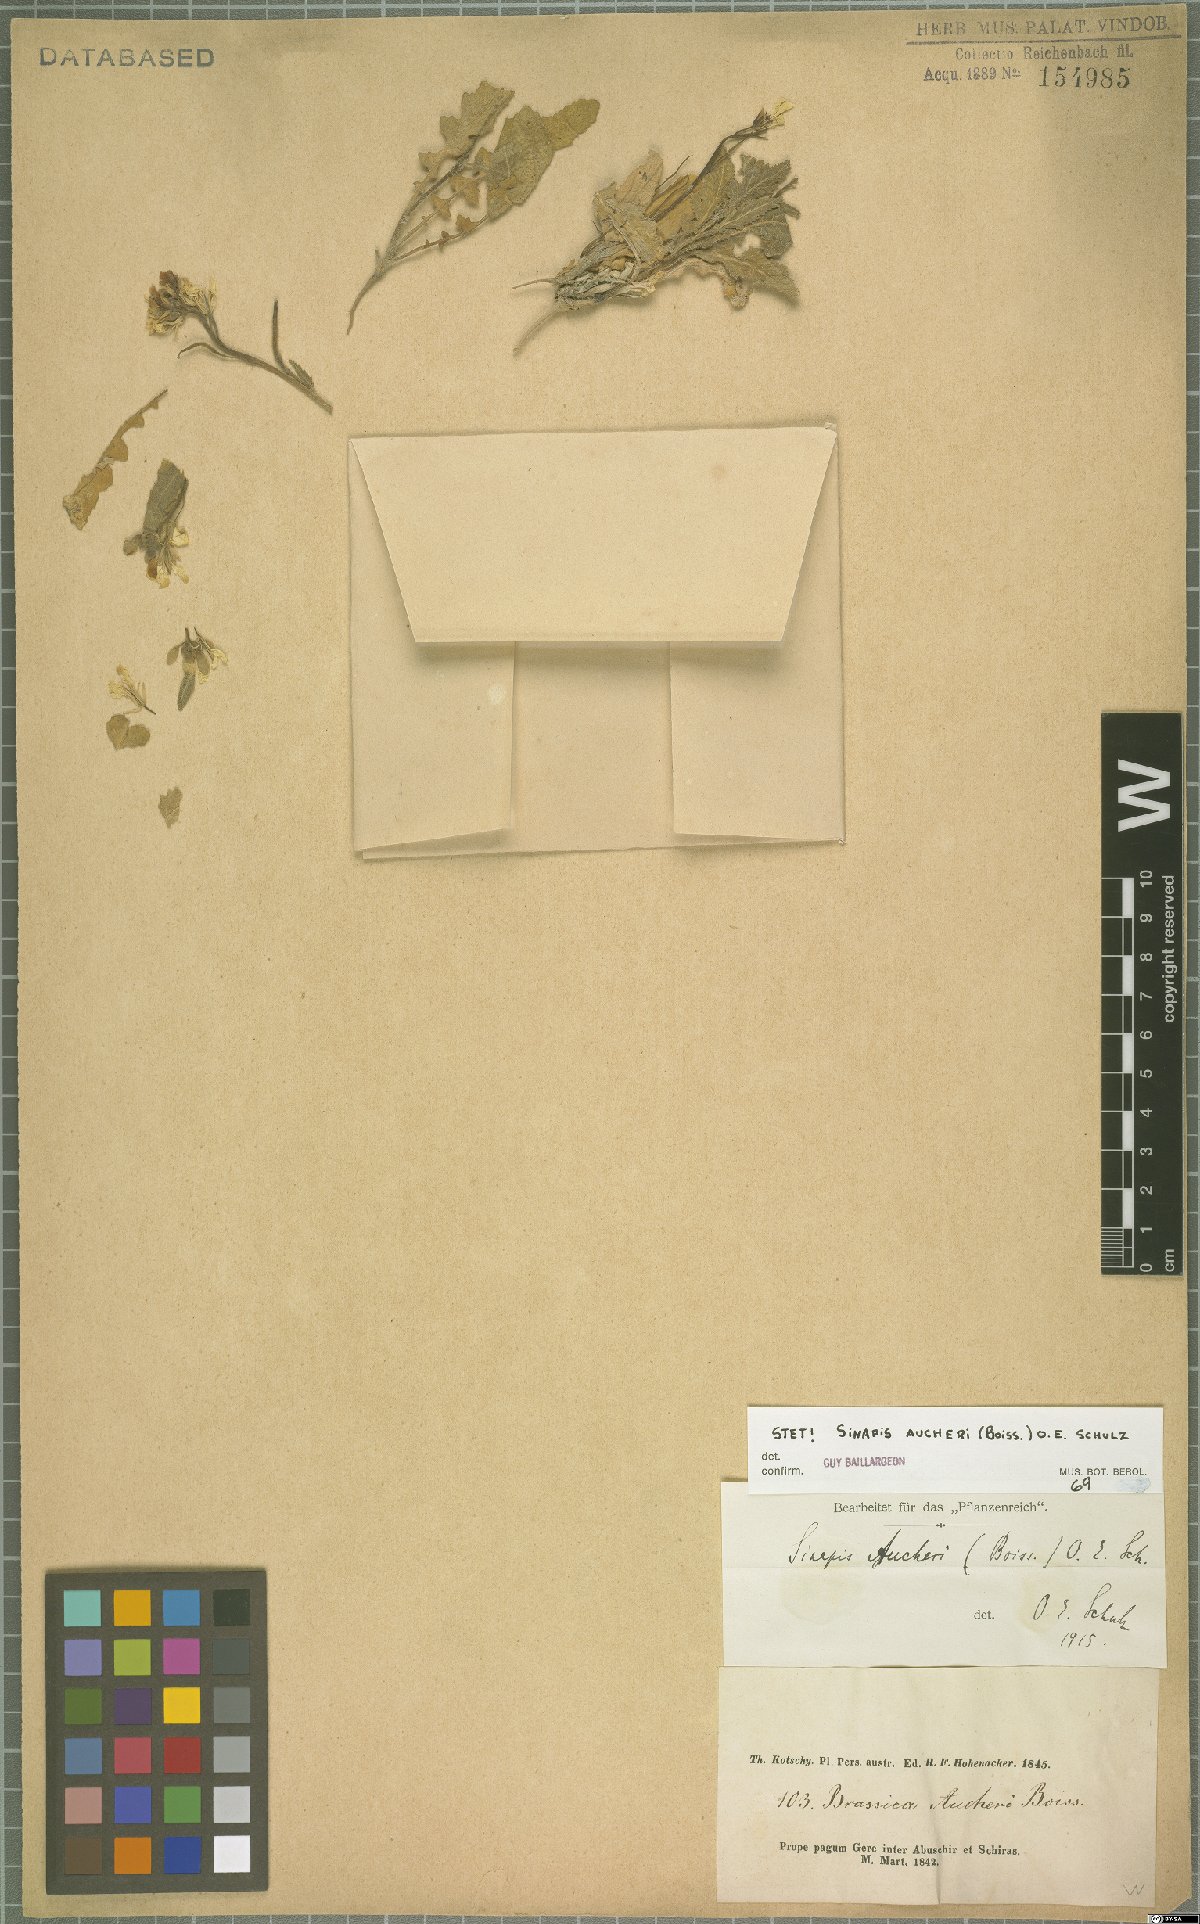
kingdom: Plantae
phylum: Tracheophyta
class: Magnoliopsida
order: Brassicales
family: Brassicaceae
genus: Brassica
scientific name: Brassica aucheri
